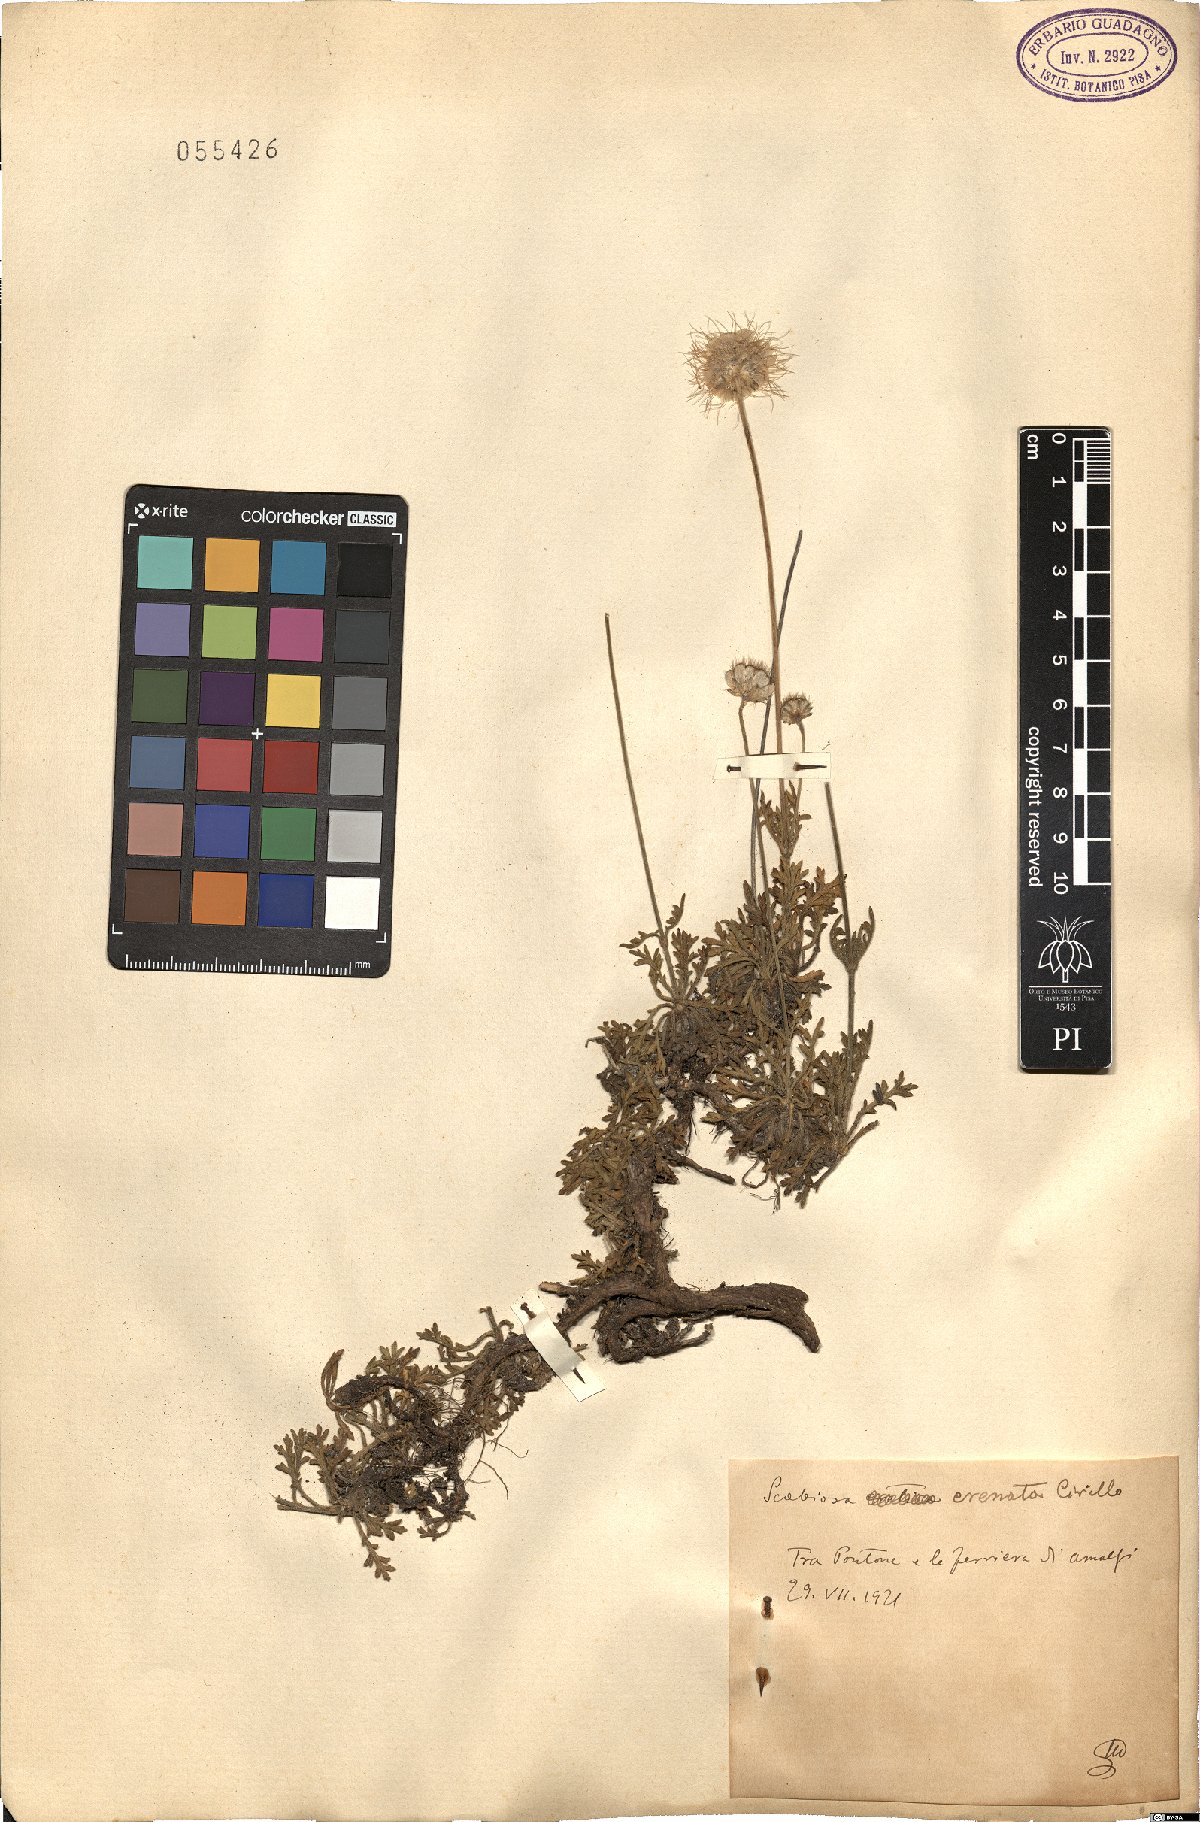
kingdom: Plantae
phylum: Tracheophyta
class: Magnoliopsida
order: Dipsacales
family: Caprifoliaceae
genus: Lomelosia
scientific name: Lomelosia crenata
